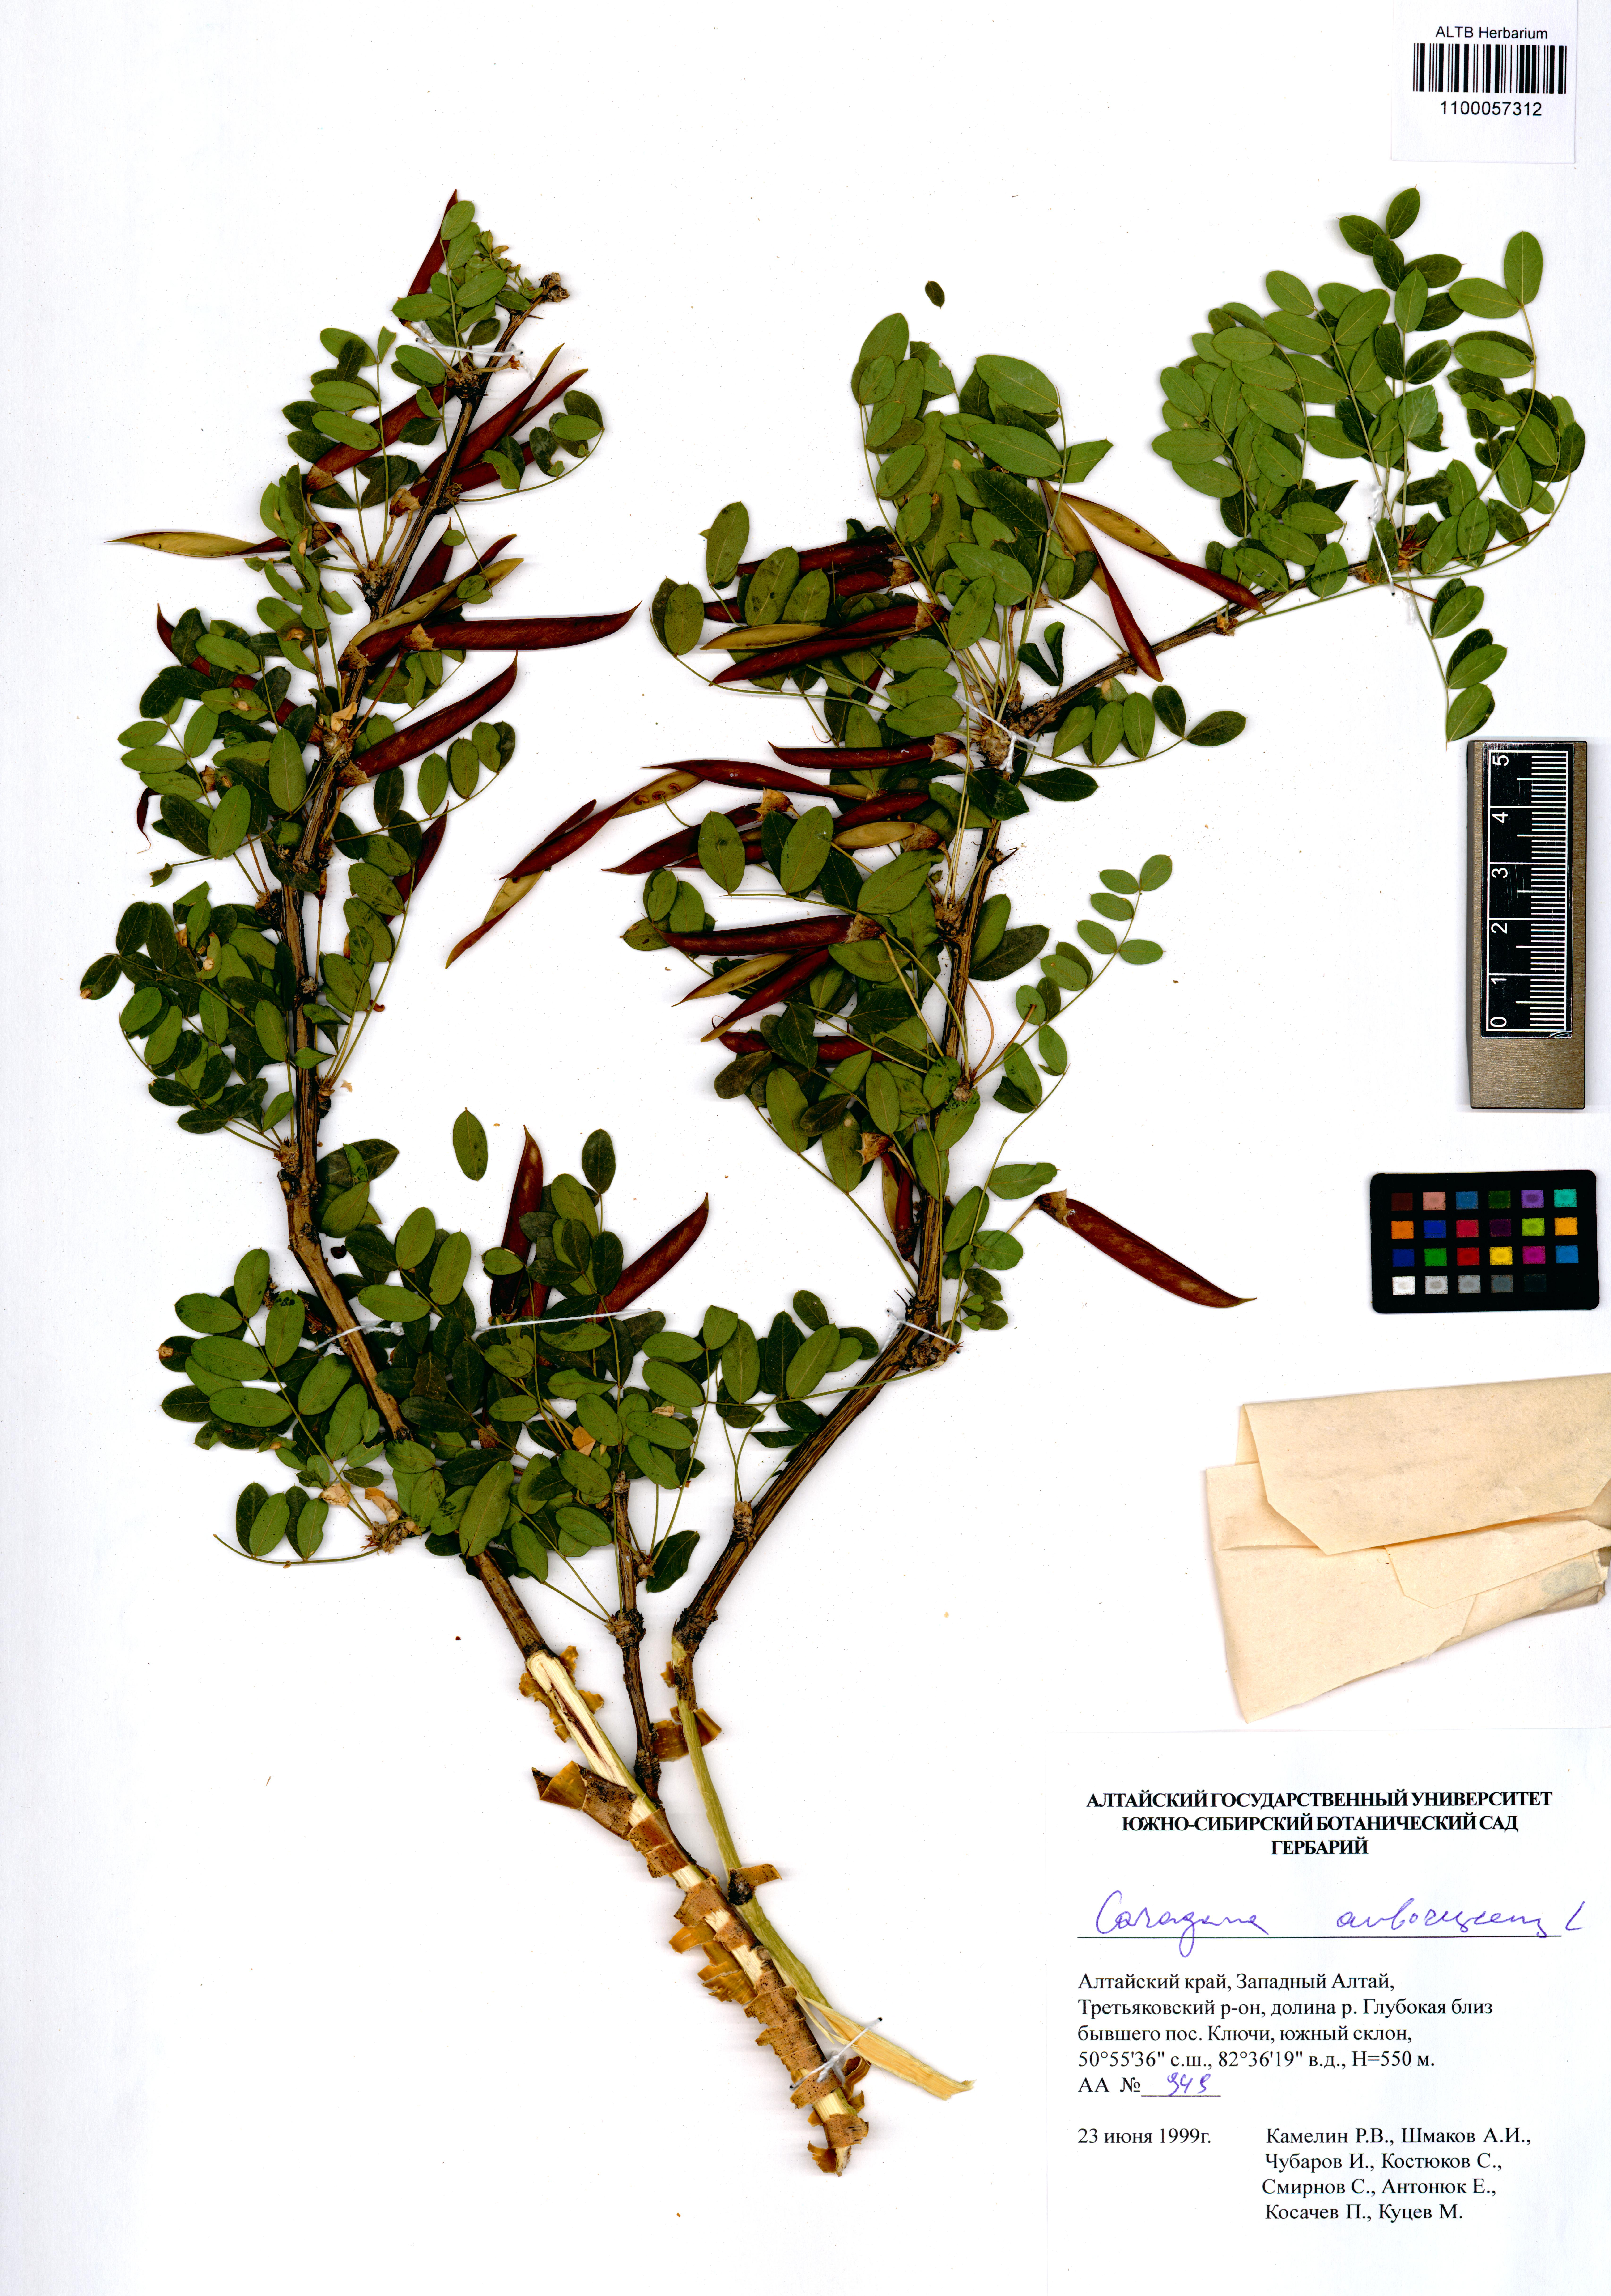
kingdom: Plantae
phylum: Tracheophyta
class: Magnoliopsida
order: Fabales
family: Fabaceae
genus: Caragana
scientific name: Caragana arborescens
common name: Siberian peashrub
